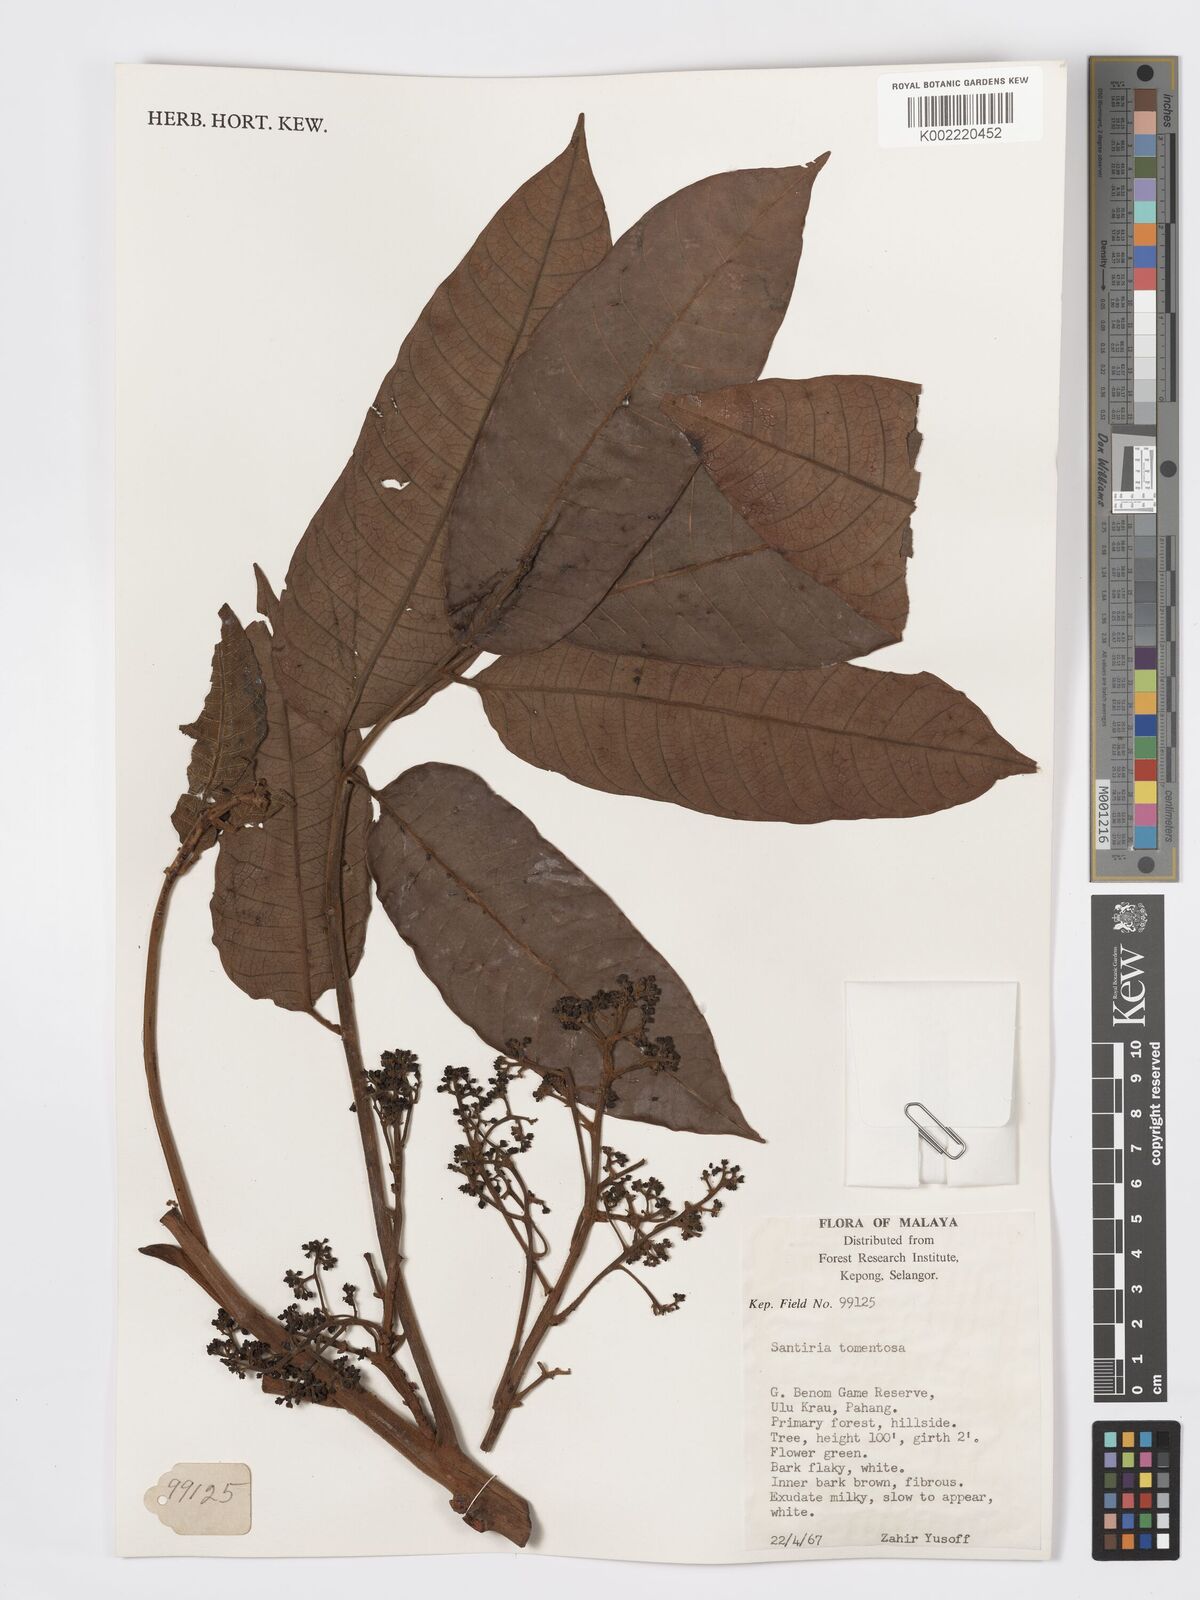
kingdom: Plantae
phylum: Tracheophyta
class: Magnoliopsida
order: Sapindales
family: Burseraceae
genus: Santiria
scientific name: Santiria tomentosa
